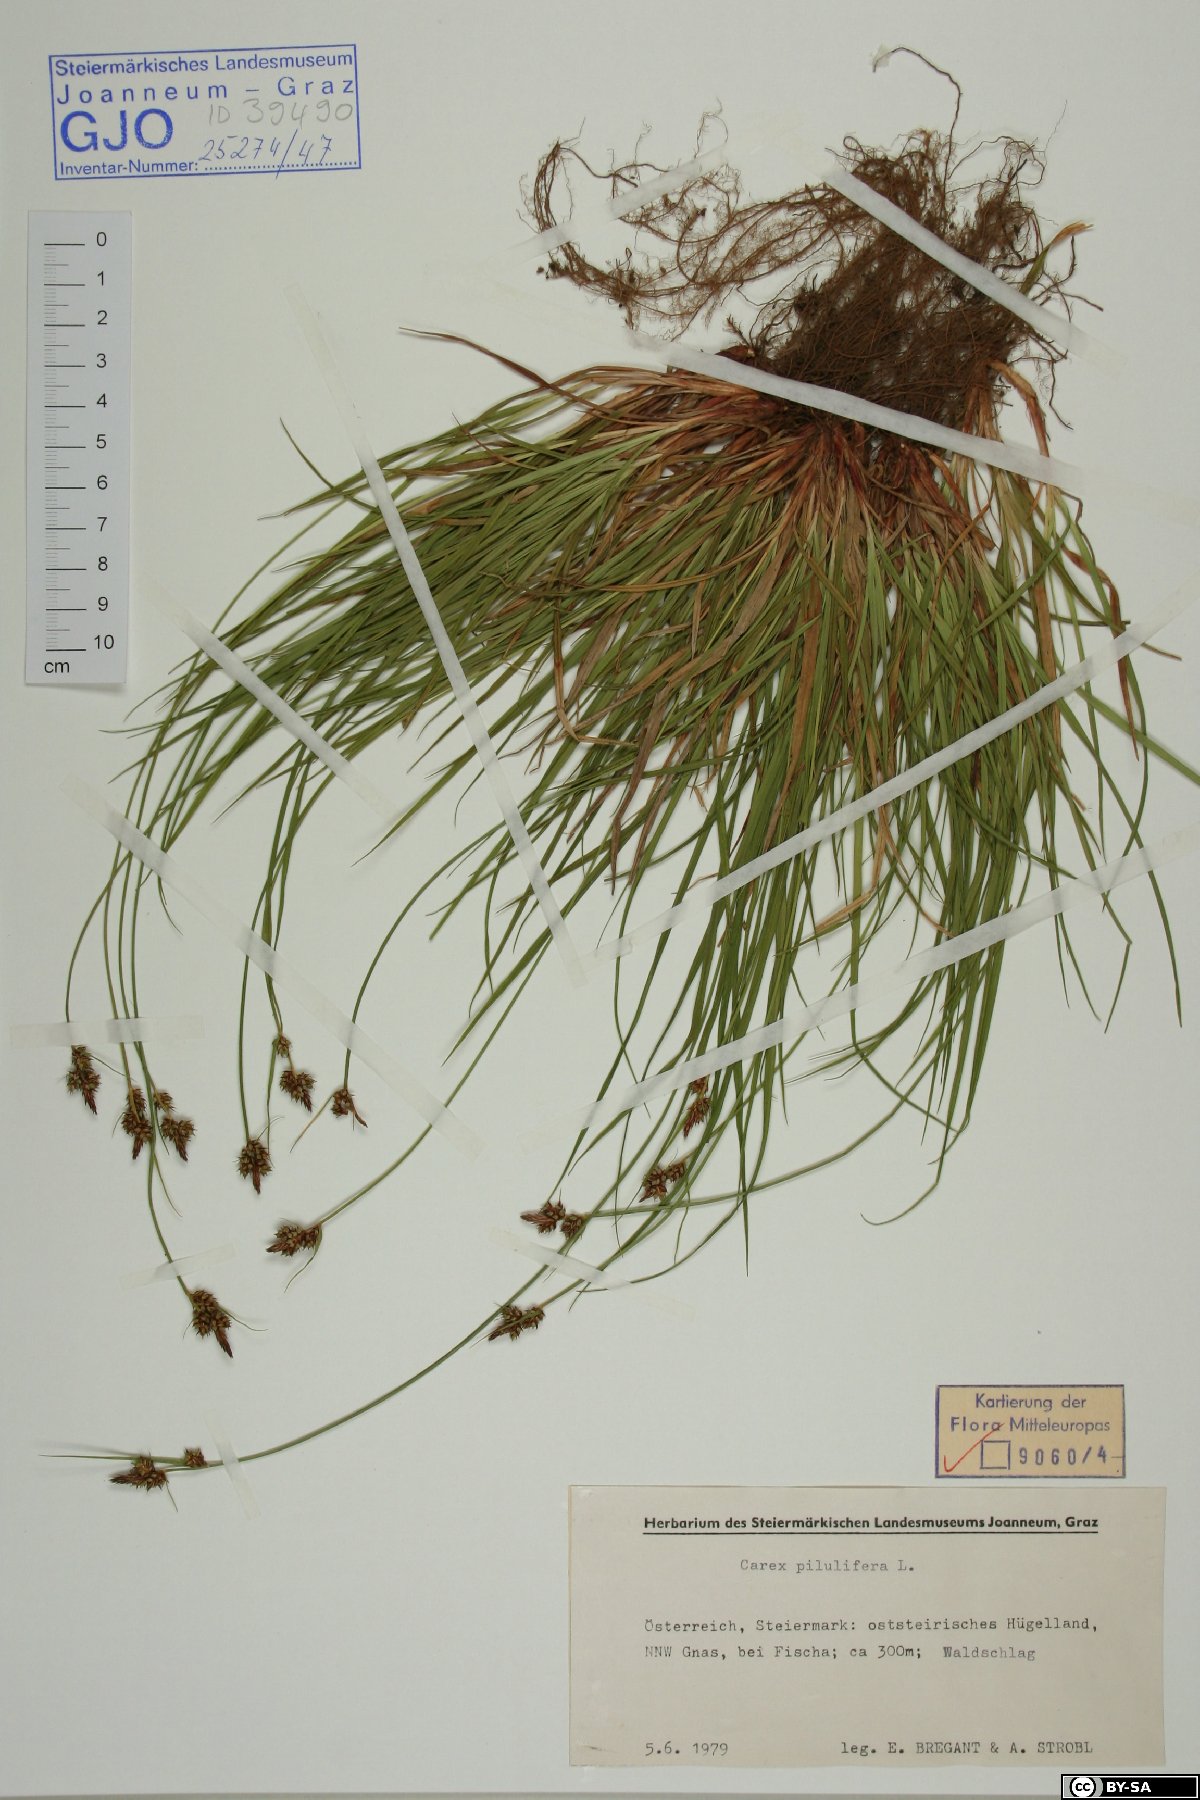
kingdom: Plantae
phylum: Tracheophyta
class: Liliopsida
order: Poales
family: Cyperaceae
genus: Carex
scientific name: Carex pilulifera
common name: Pill sedge
